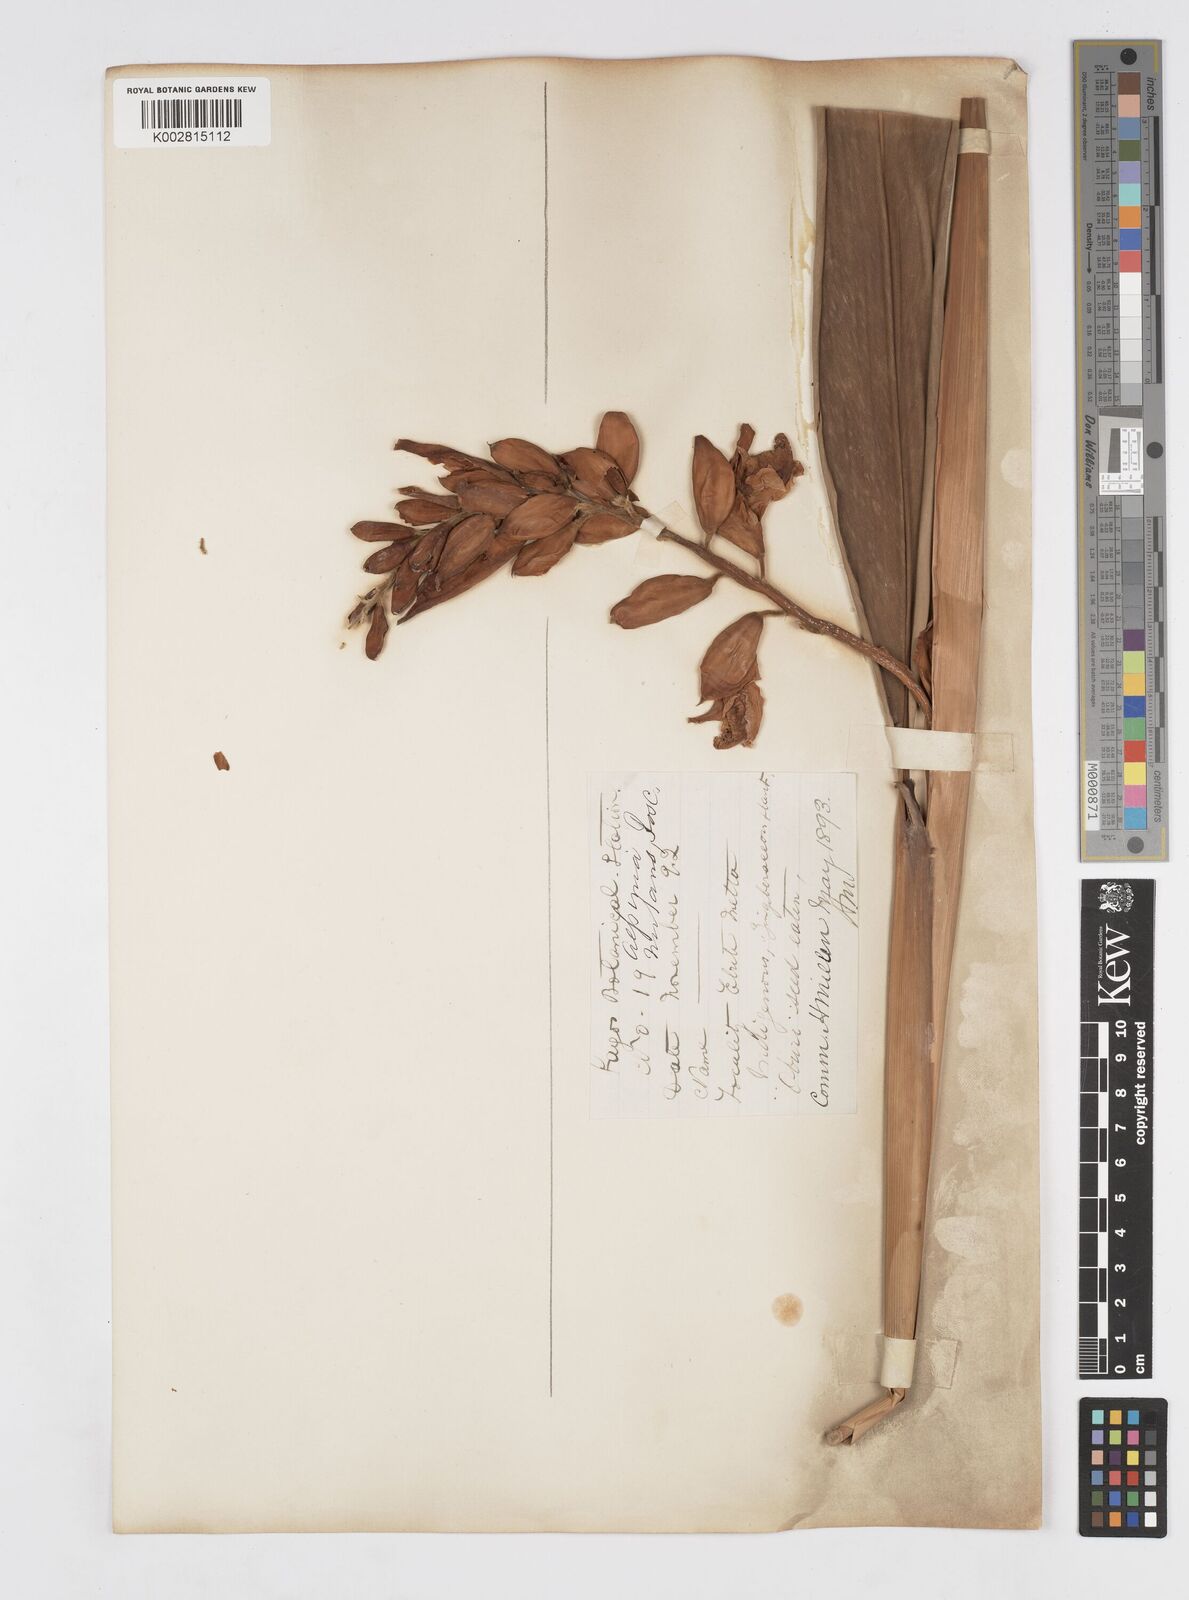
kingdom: Plantae
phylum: Tracheophyta
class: Liliopsida
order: Zingiberales
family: Zingiberaceae
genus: Alpinia
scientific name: Alpinia zerumbet
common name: Shellplant
